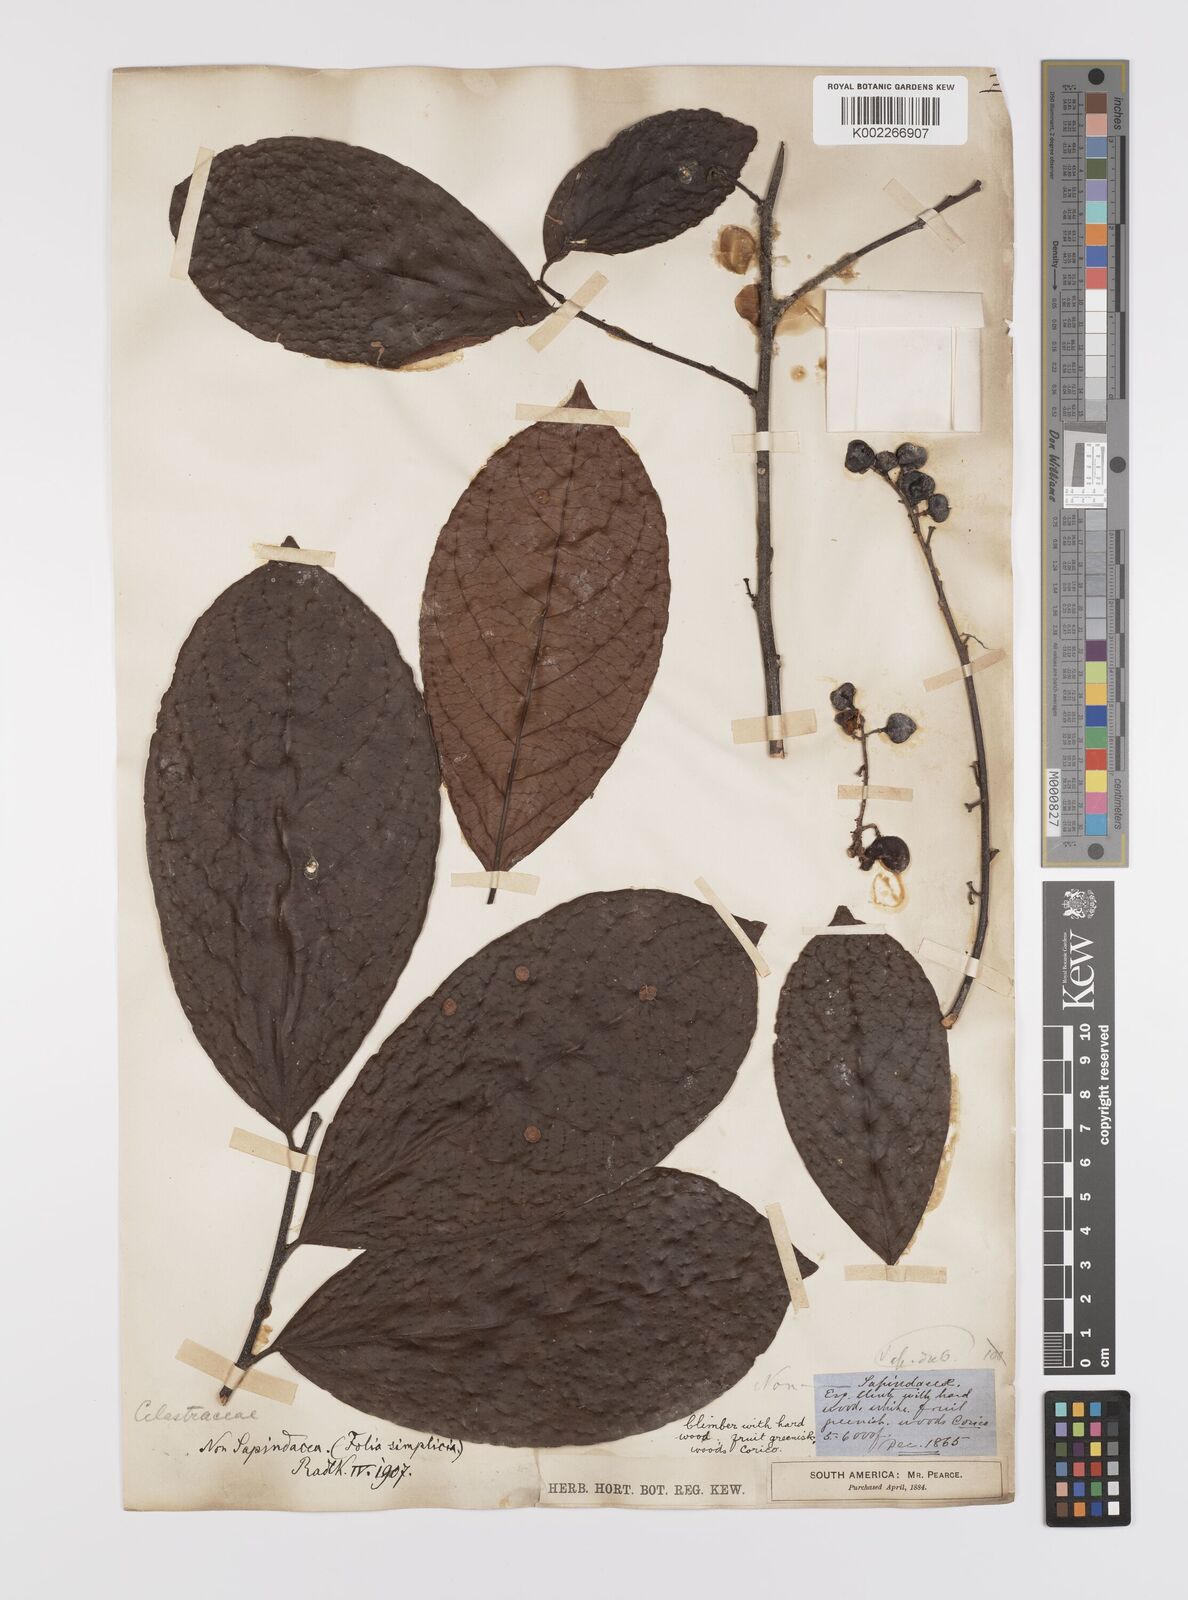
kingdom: Plantae
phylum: Tracheophyta
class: Magnoliopsida
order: Celastrales
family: Celastraceae
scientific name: Celastraceae
